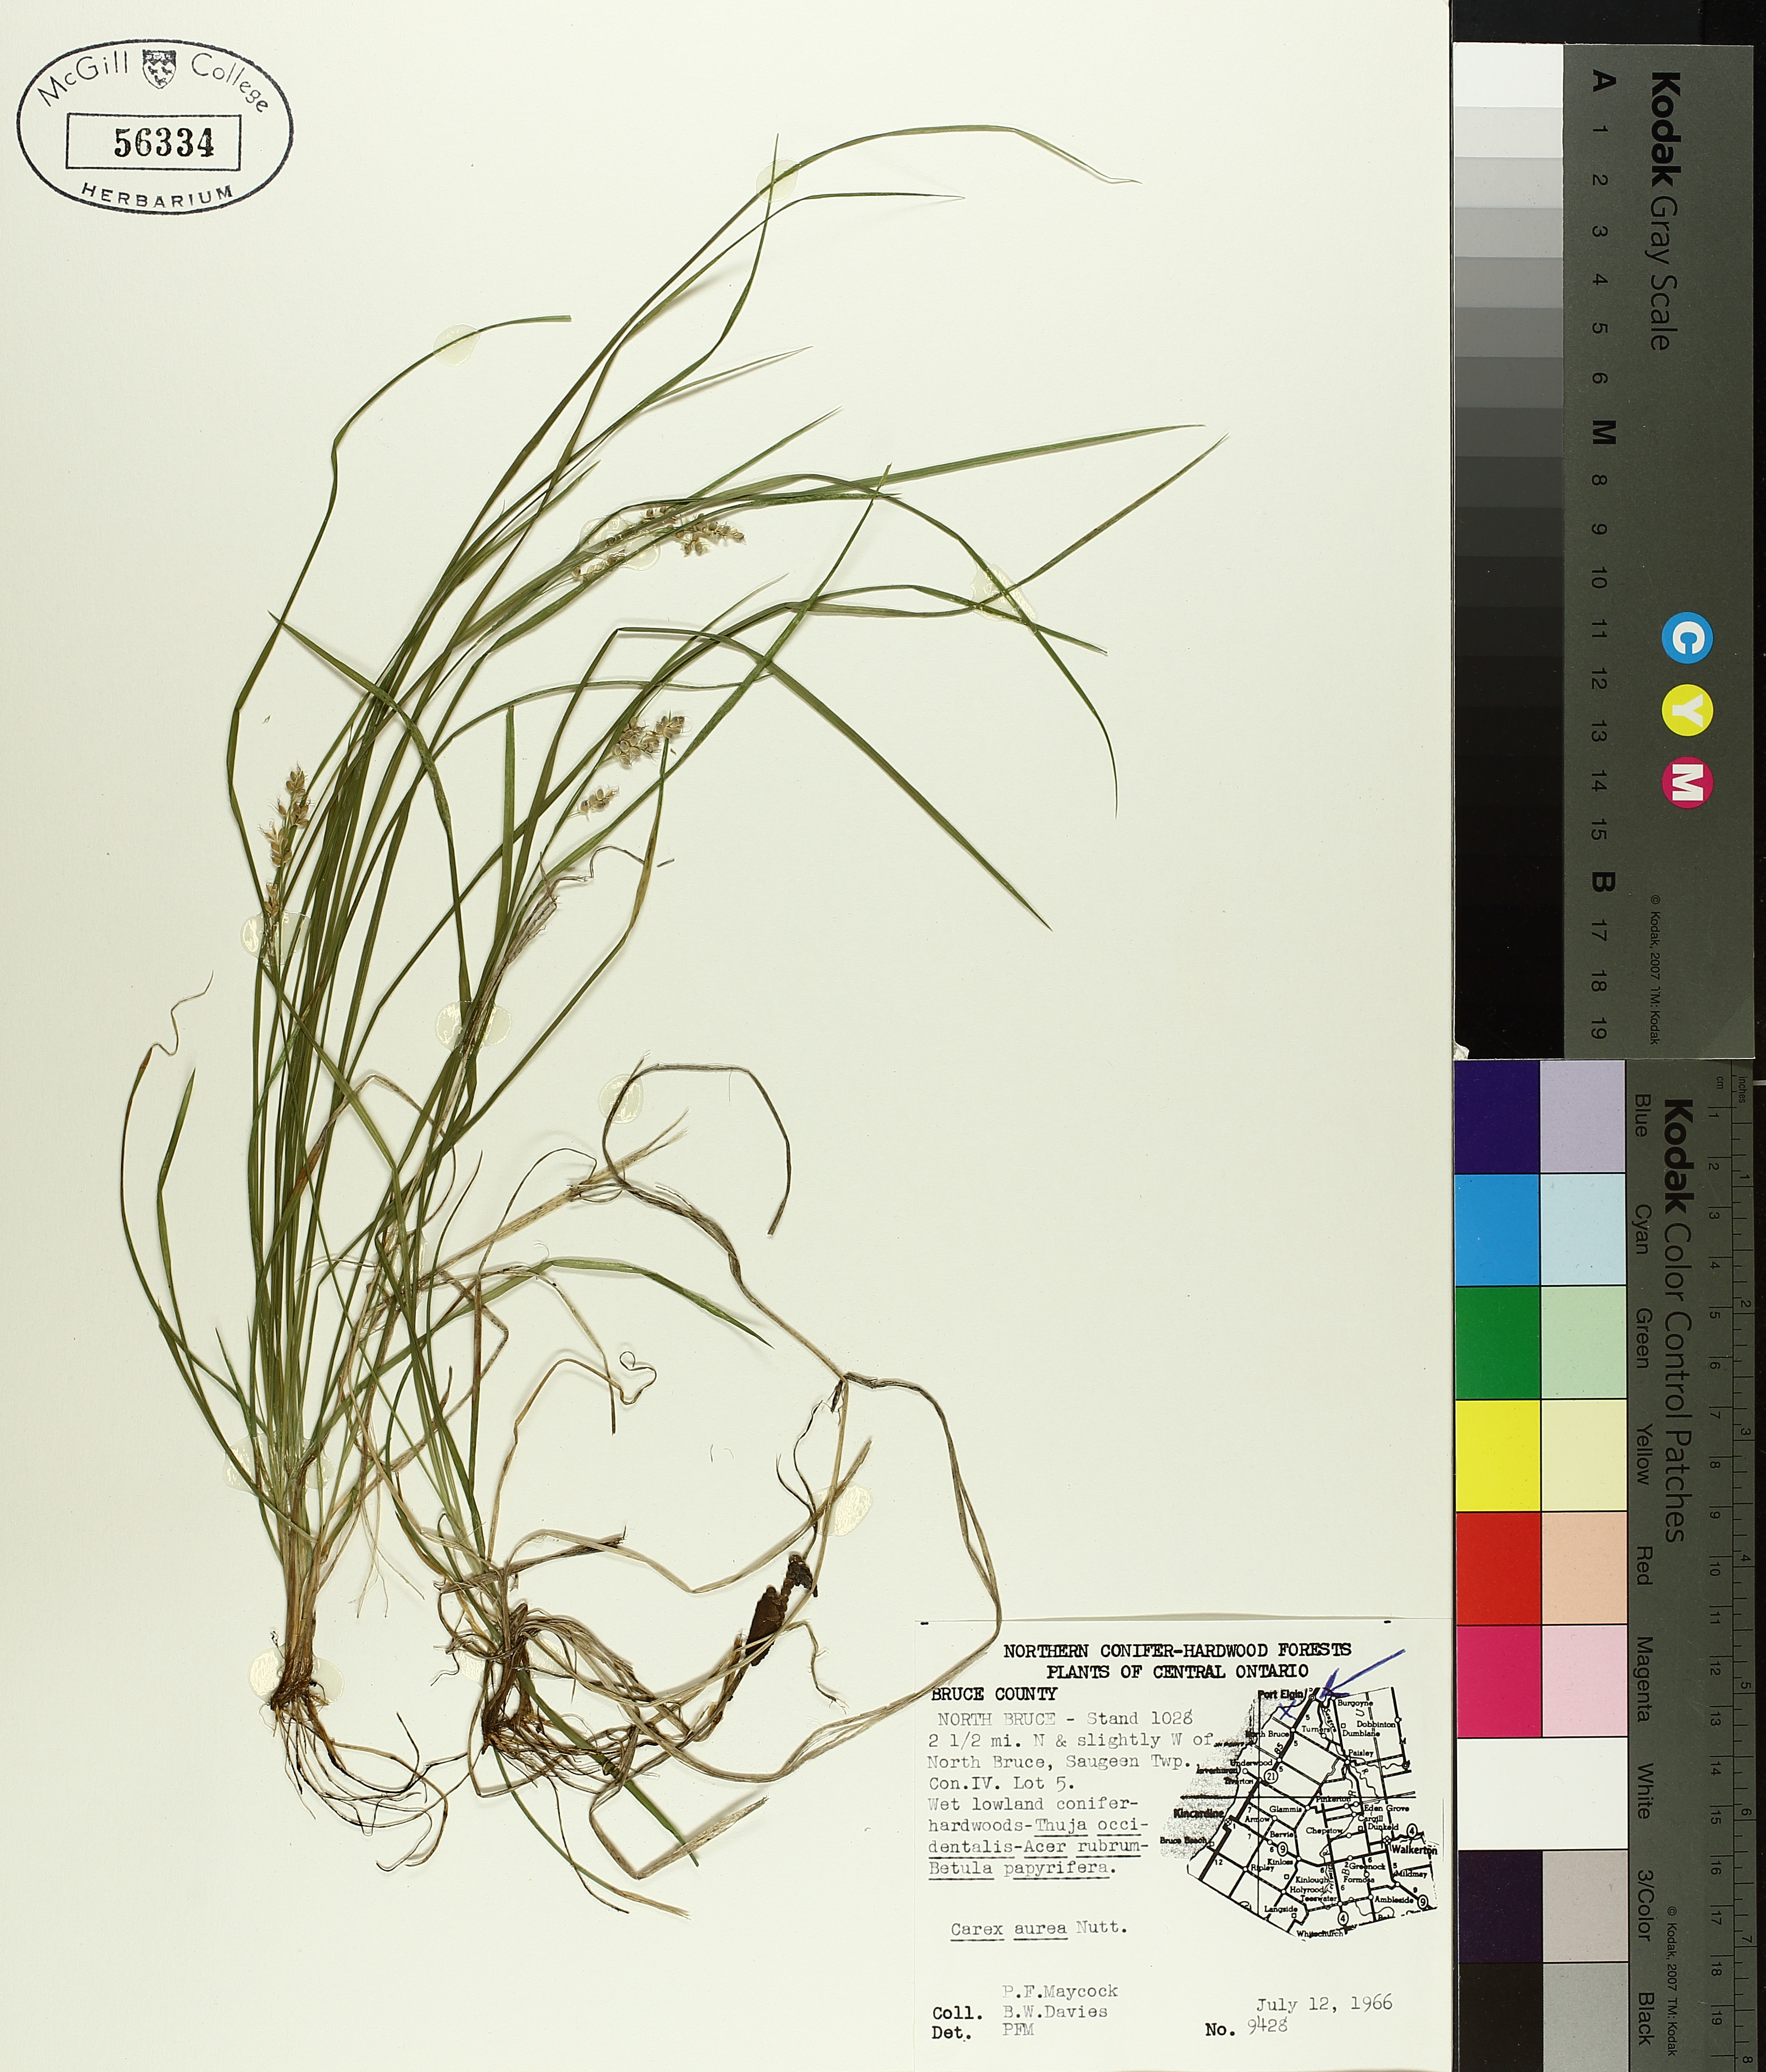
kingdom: Plantae
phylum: Tracheophyta
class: Liliopsida
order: Poales
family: Cyperaceae
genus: Carex
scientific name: Carex aurea
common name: Golden sedge
